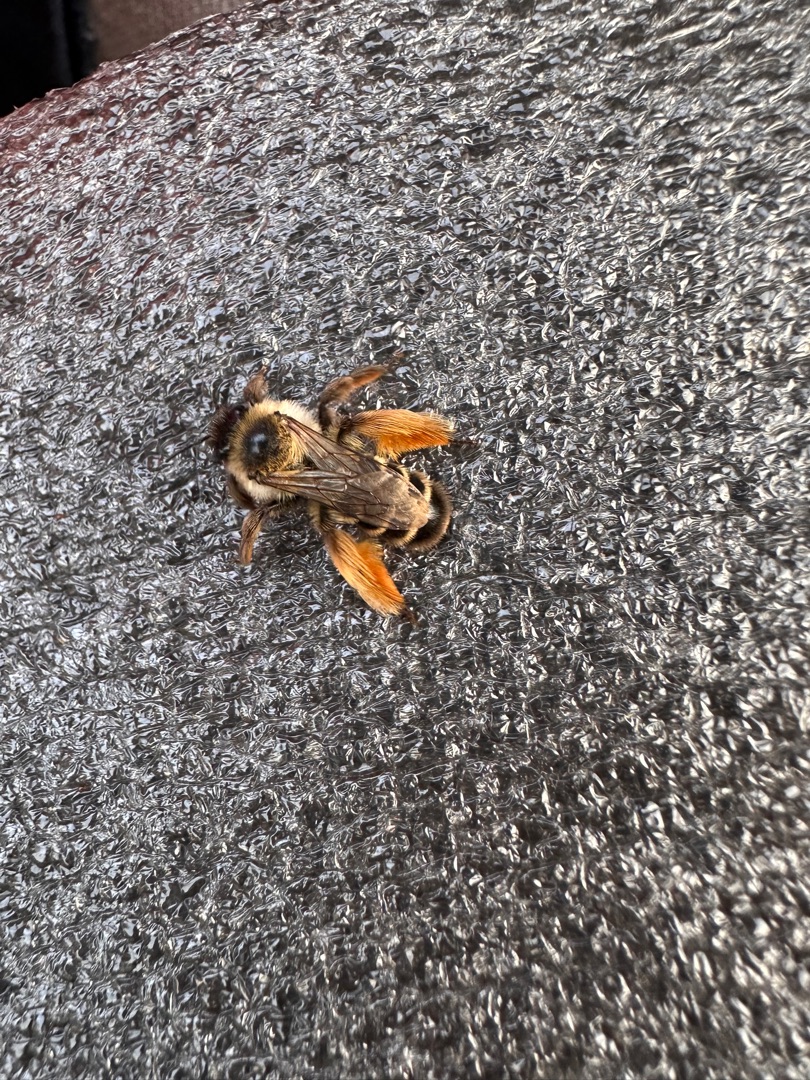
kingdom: Animalia
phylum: Arthropoda
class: Insecta
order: Hymenoptera
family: Melittidae
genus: Dasypoda
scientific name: Dasypoda hirtipes
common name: Pragtbuksebi
